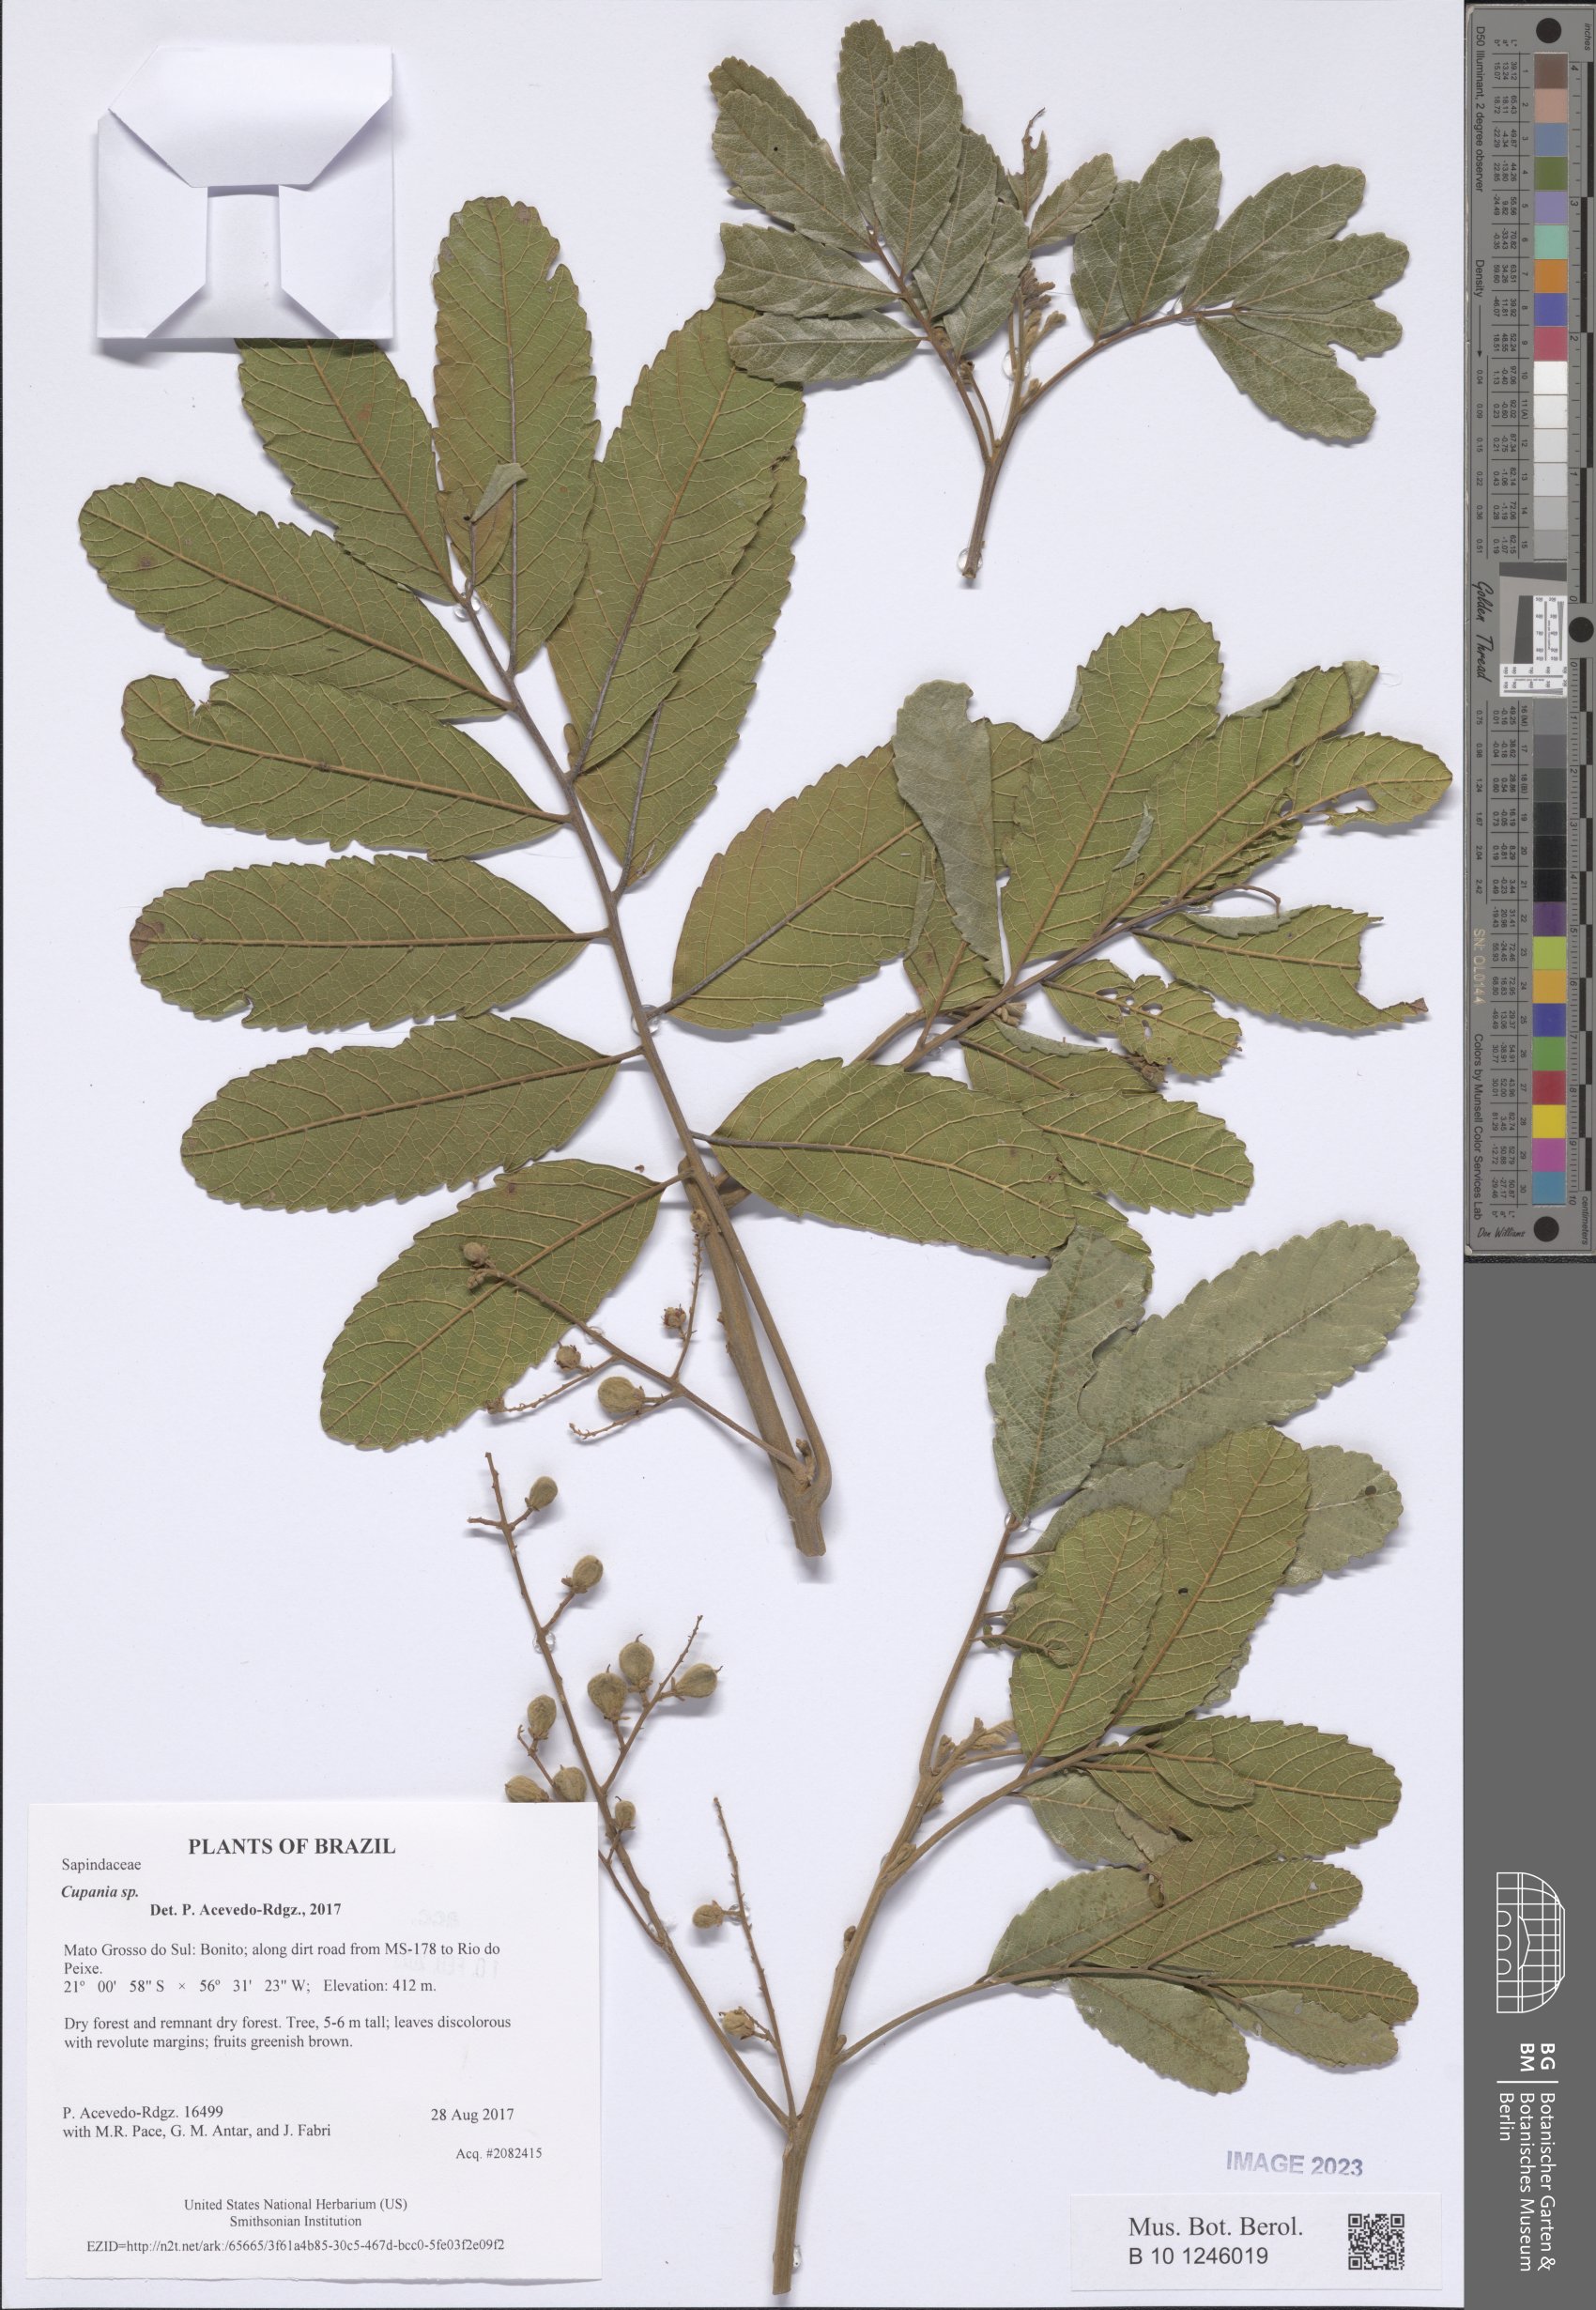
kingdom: Plantae
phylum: Tracheophyta
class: Magnoliopsida
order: Sapindales
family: Sapindaceae
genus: Cupania
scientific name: Cupania
